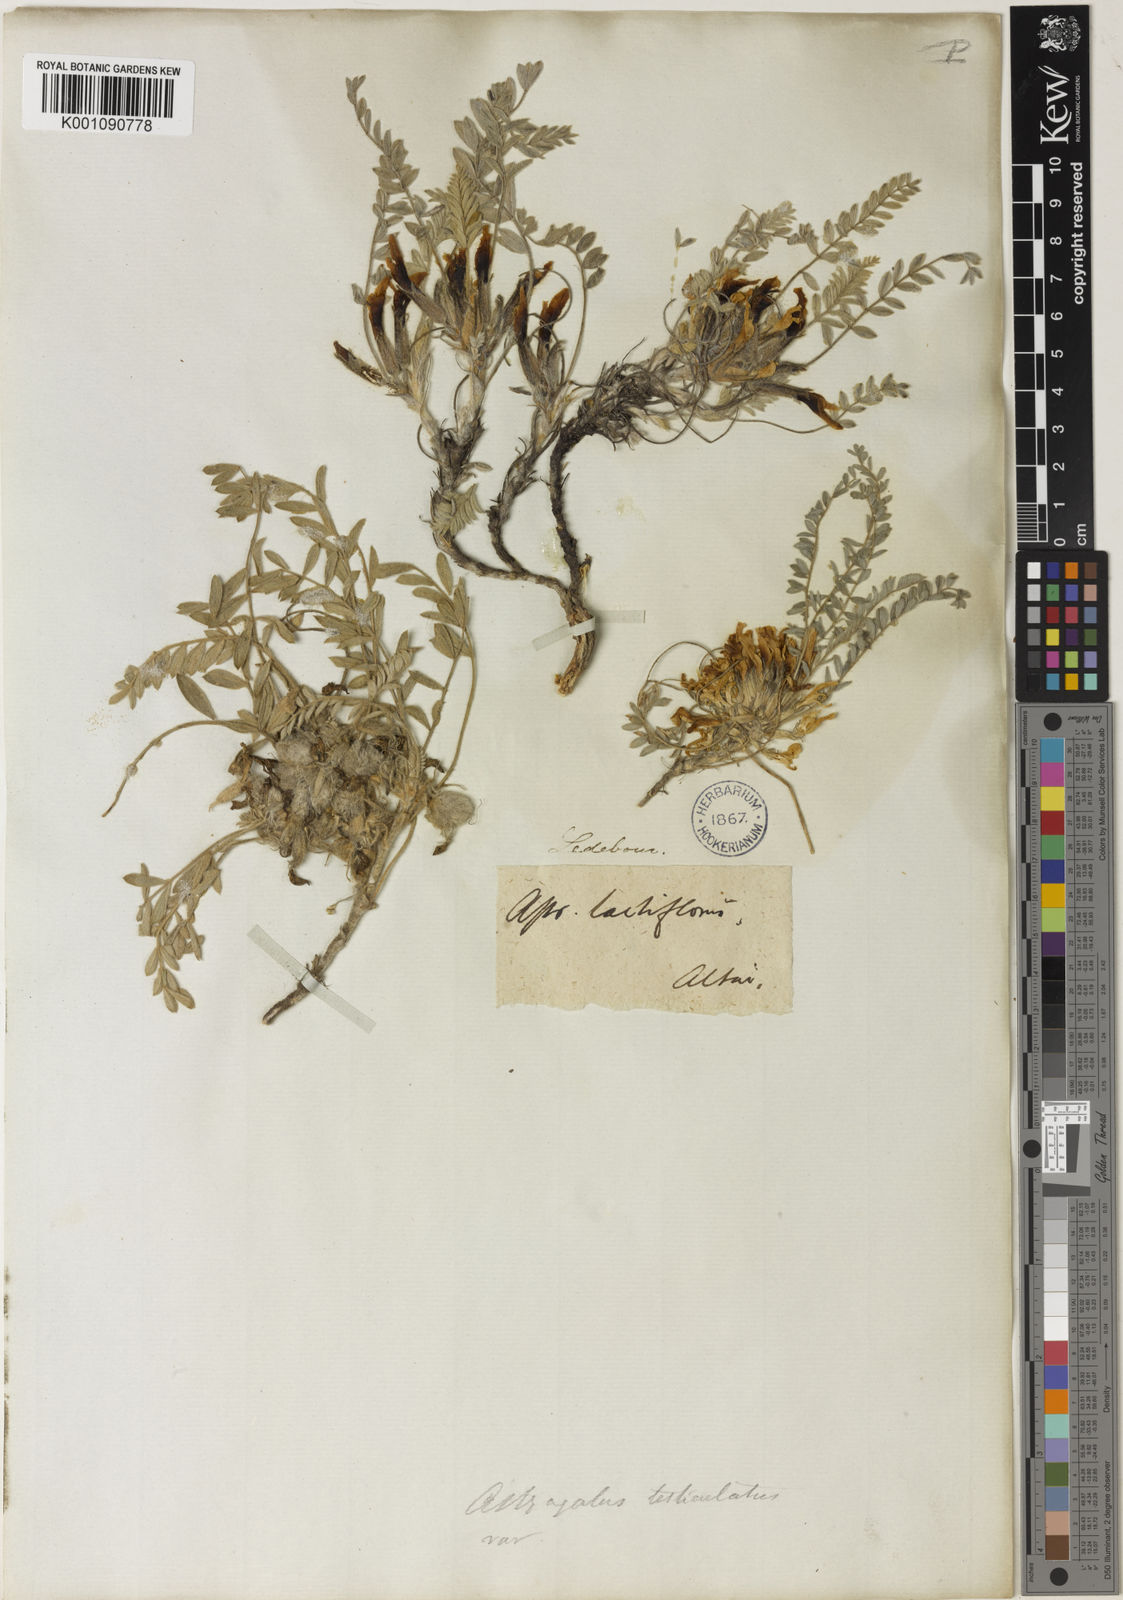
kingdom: Plantae
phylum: Tracheophyta
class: Magnoliopsida
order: Fabales
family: Fabaceae
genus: Astragalus
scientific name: Astragalus
